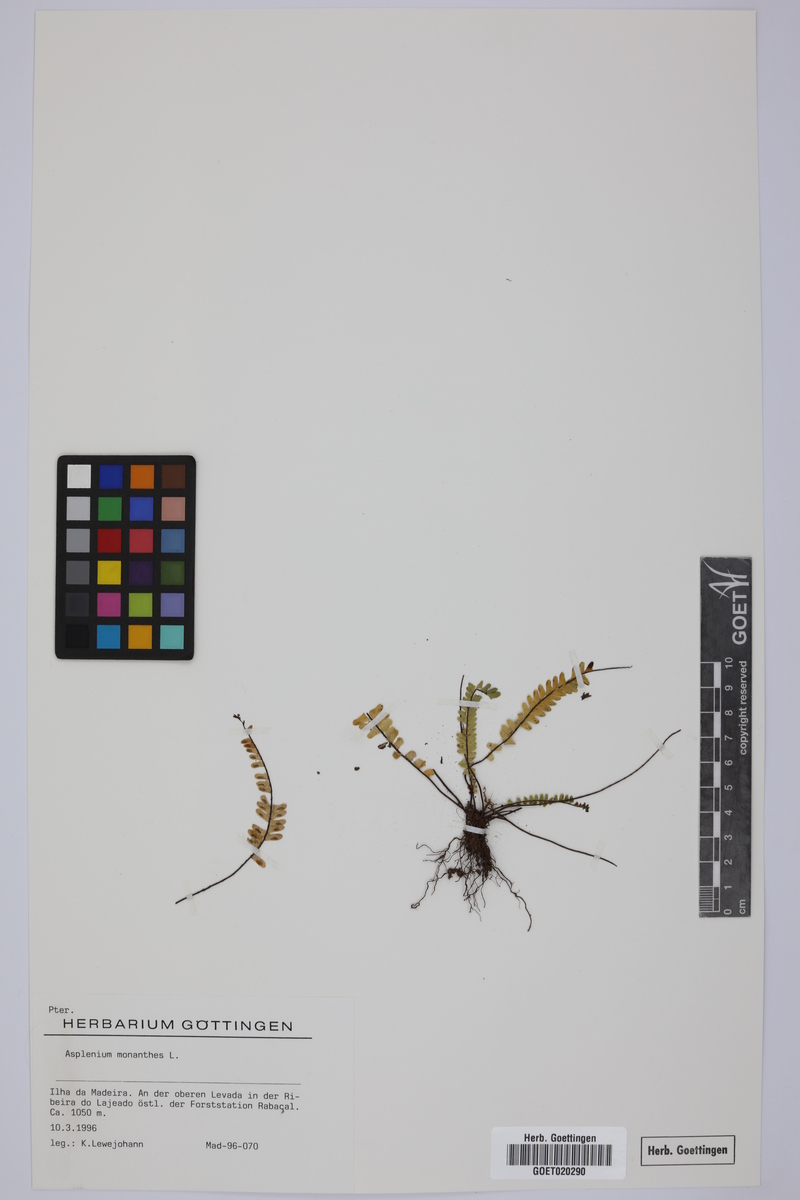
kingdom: Plantae
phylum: Tracheophyta
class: Polypodiopsida
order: Polypodiales
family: Aspleniaceae
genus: Asplenium
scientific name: Asplenium monanthes
